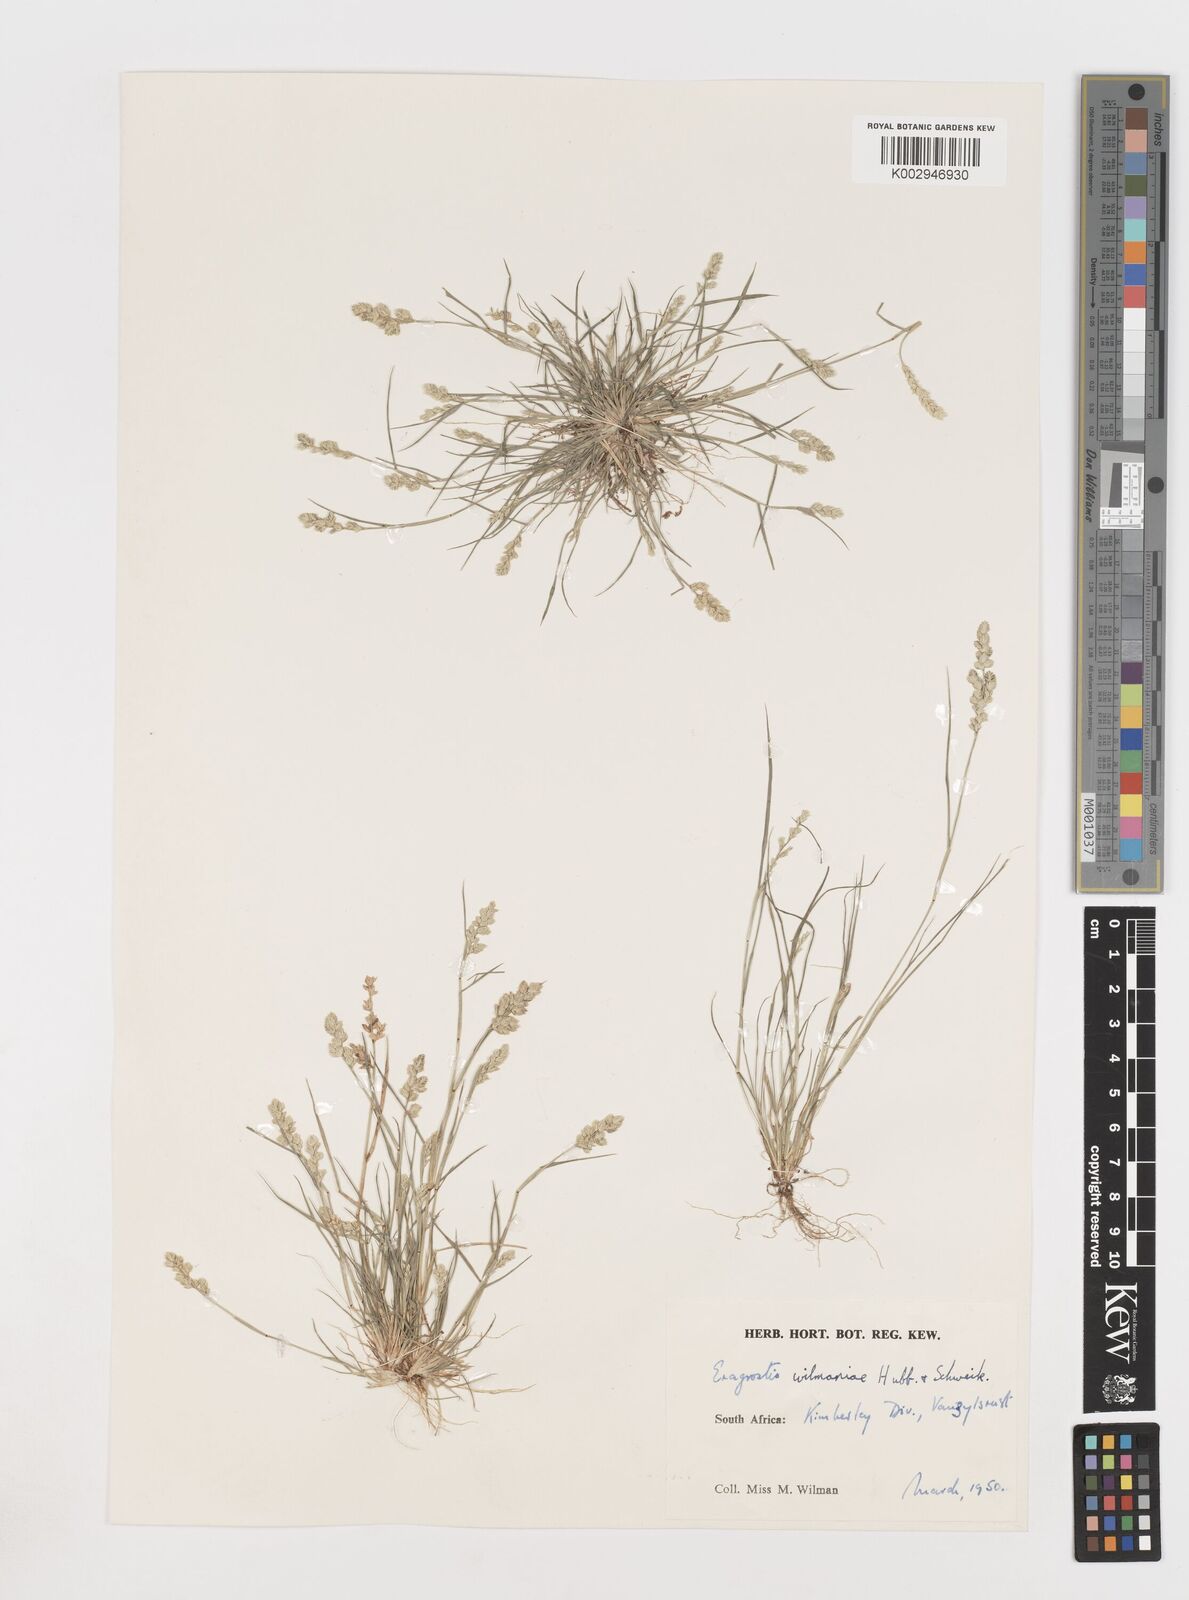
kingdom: Plantae
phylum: Tracheophyta
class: Liliopsida
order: Poales
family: Poaceae
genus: Eragrostis
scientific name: Eragrostis macrochlamys
